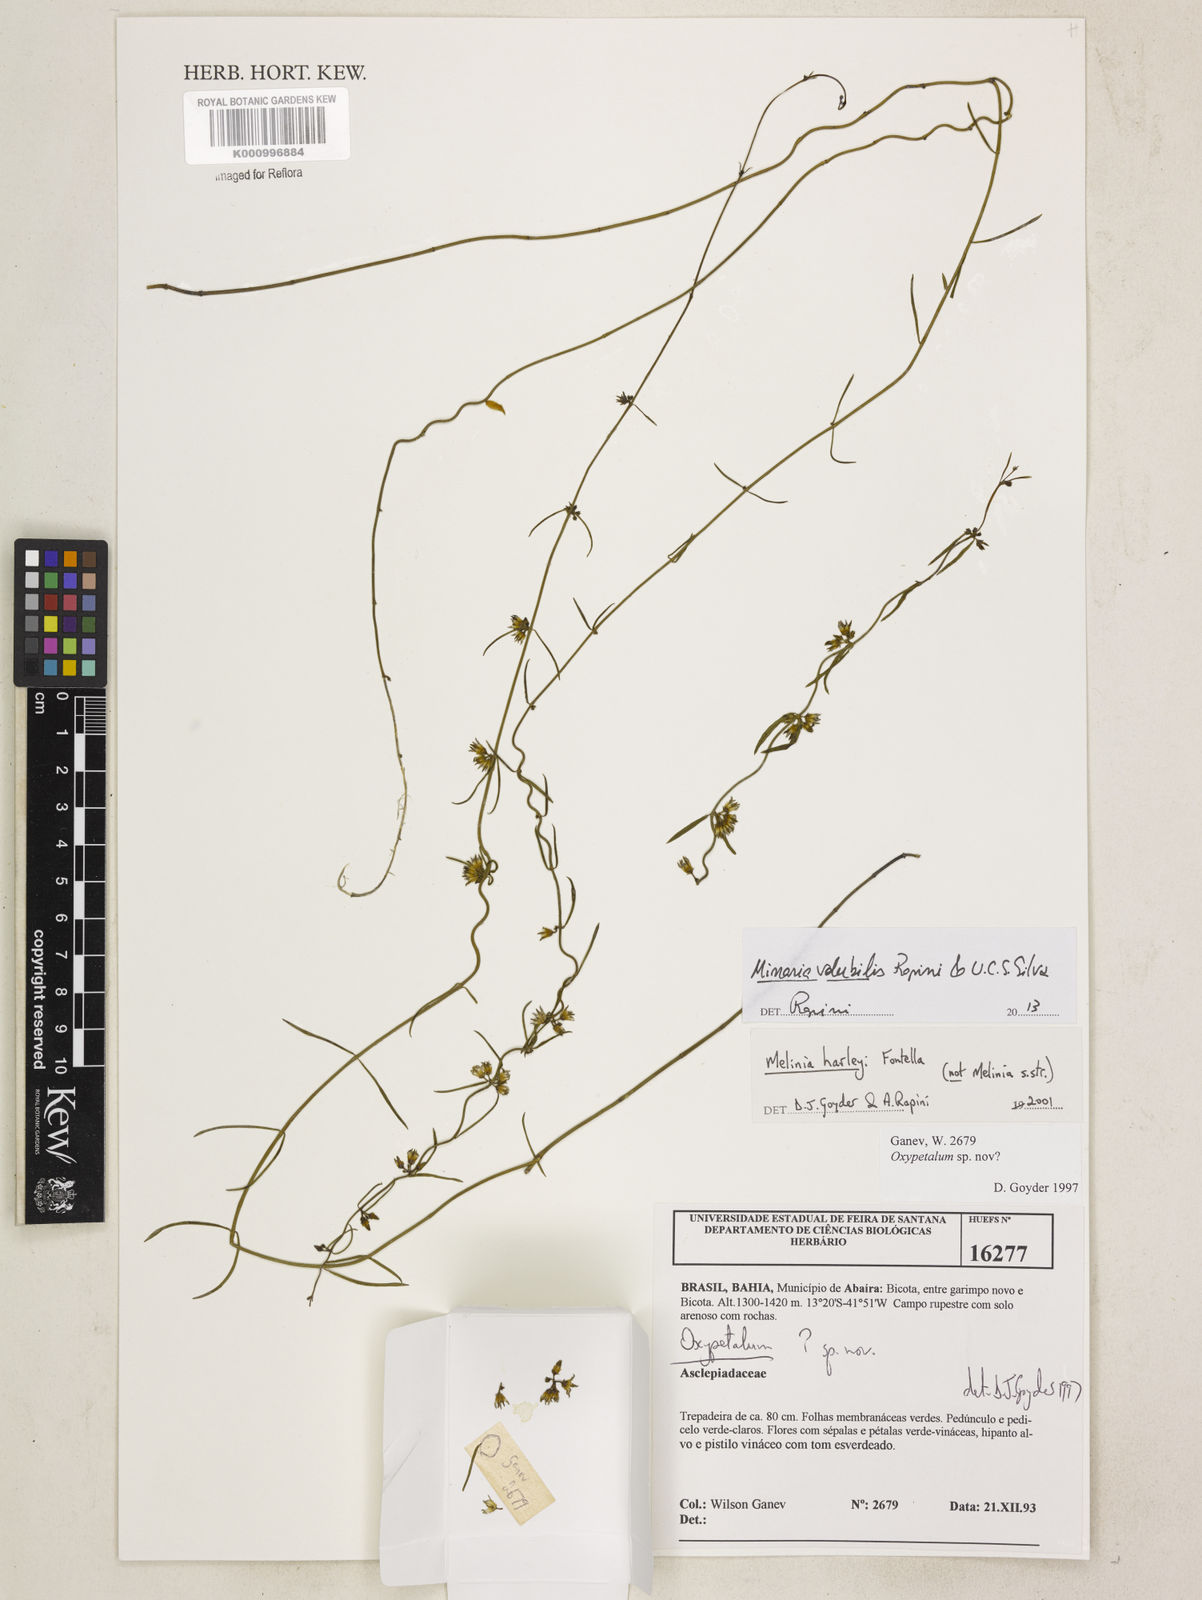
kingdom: Plantae
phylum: Tracheophyta
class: Magnoliopsida
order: Gentianales
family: Apocynaceae
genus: Minaria
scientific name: Minaria volubilis
